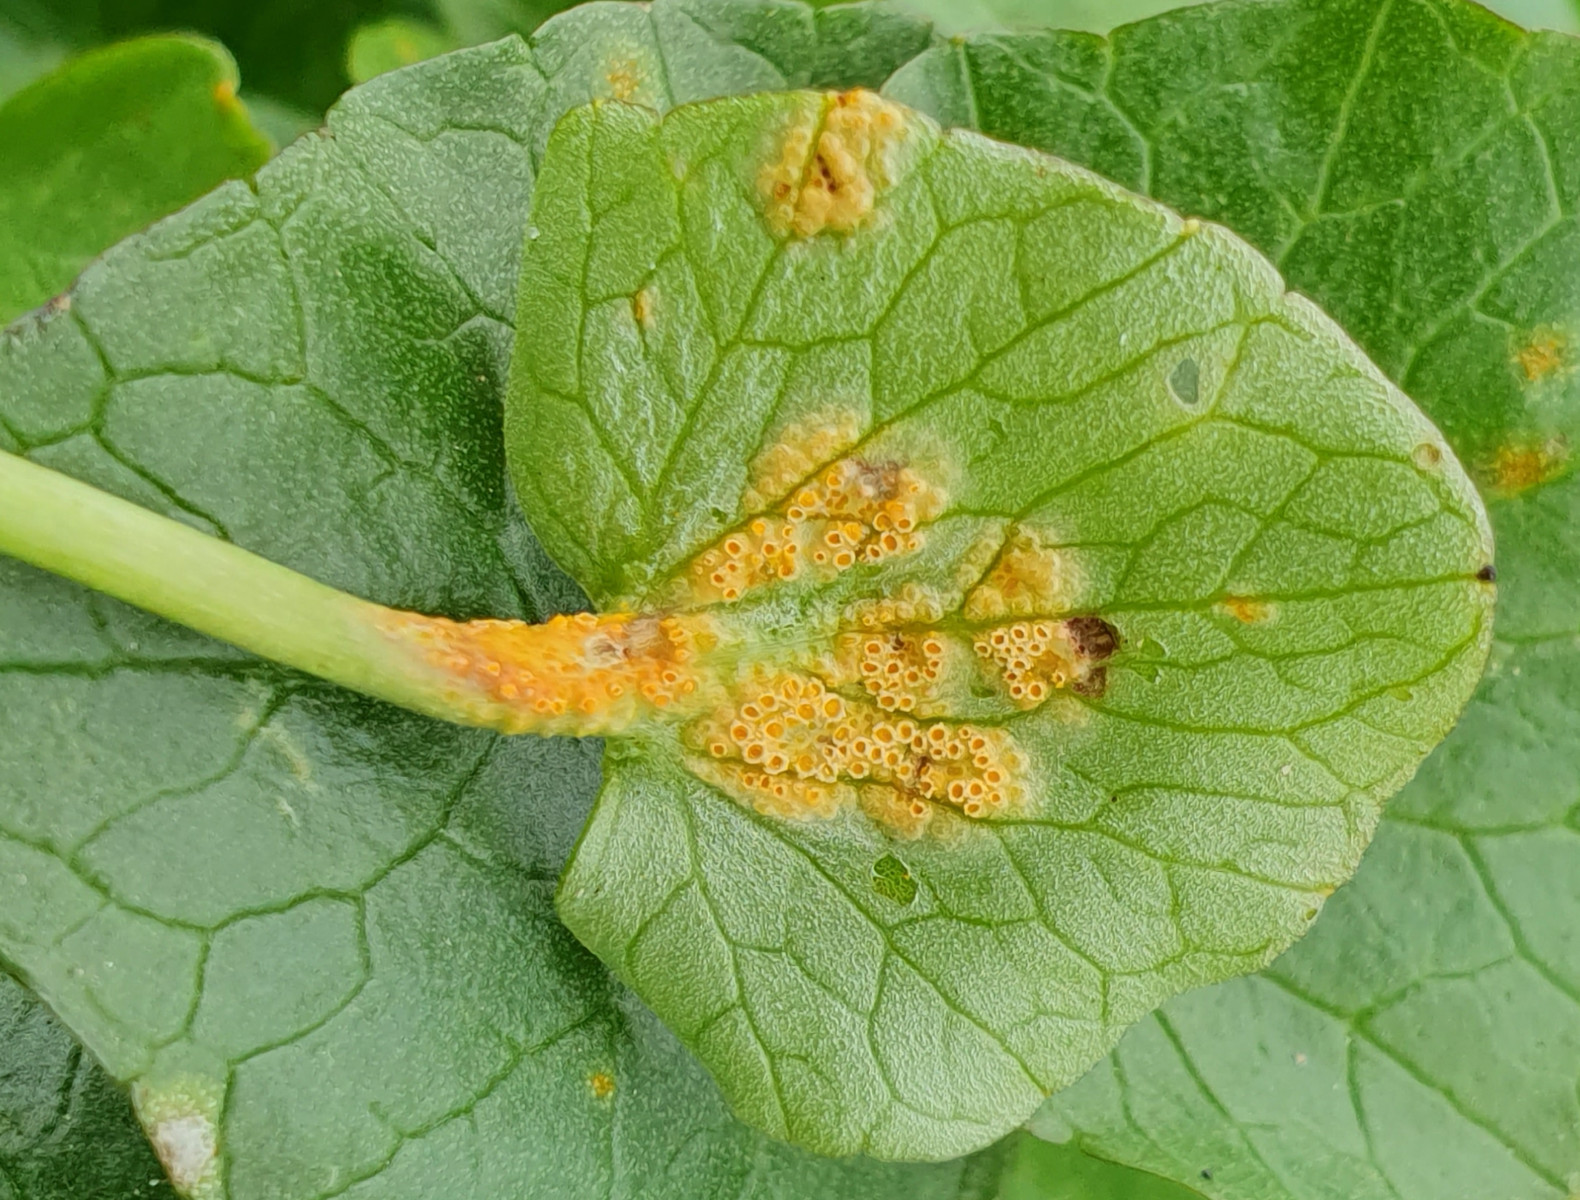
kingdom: Fungi
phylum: Basidiomycota
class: Pucciniomycetes
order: Pucciniales
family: Pucciniaceae
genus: Uromyces
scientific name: Uromyces dactylidis
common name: ranunkel-encellerust
